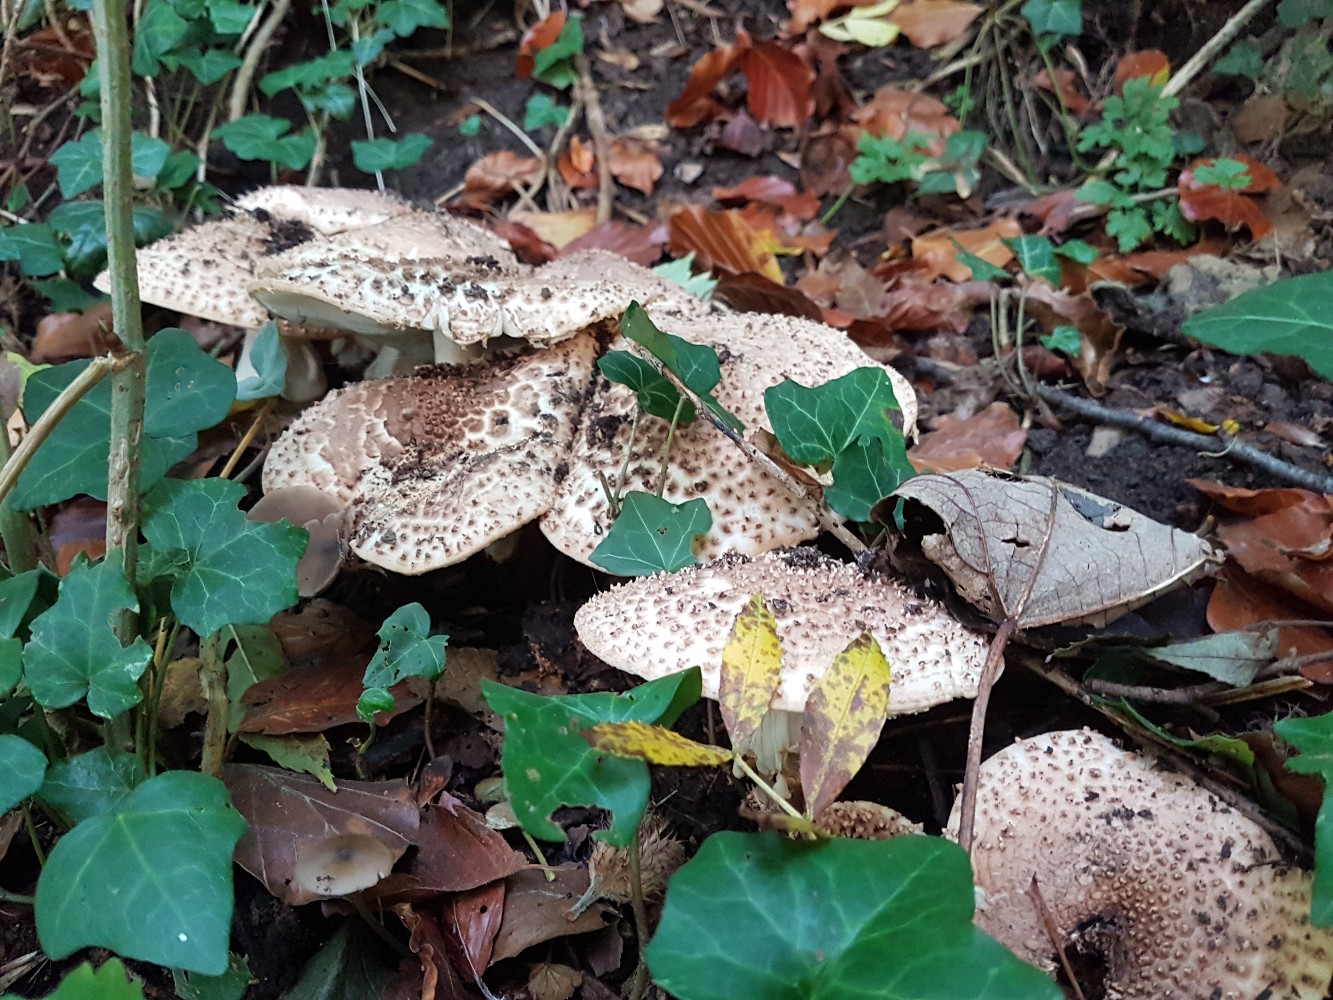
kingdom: Fungi
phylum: Basidiomycota
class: Agaricomycetes
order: Agaricales
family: Agaricaceae
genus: Echinoderma
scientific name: Echinoderma asperum
